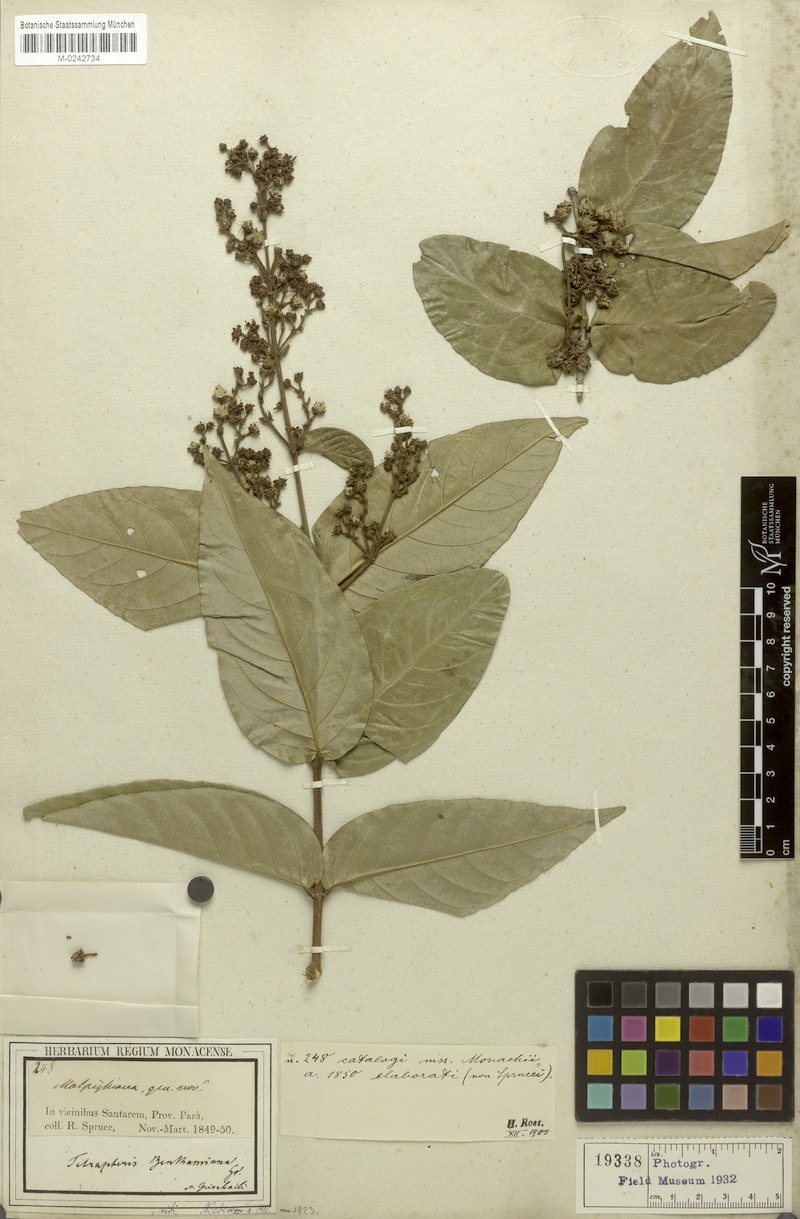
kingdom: Plantae
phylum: Tracheophyta
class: Magnoliopsida
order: Malpighiales
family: Malpighiaceae
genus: Niedenzuella
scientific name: Niedenzuella stannea
